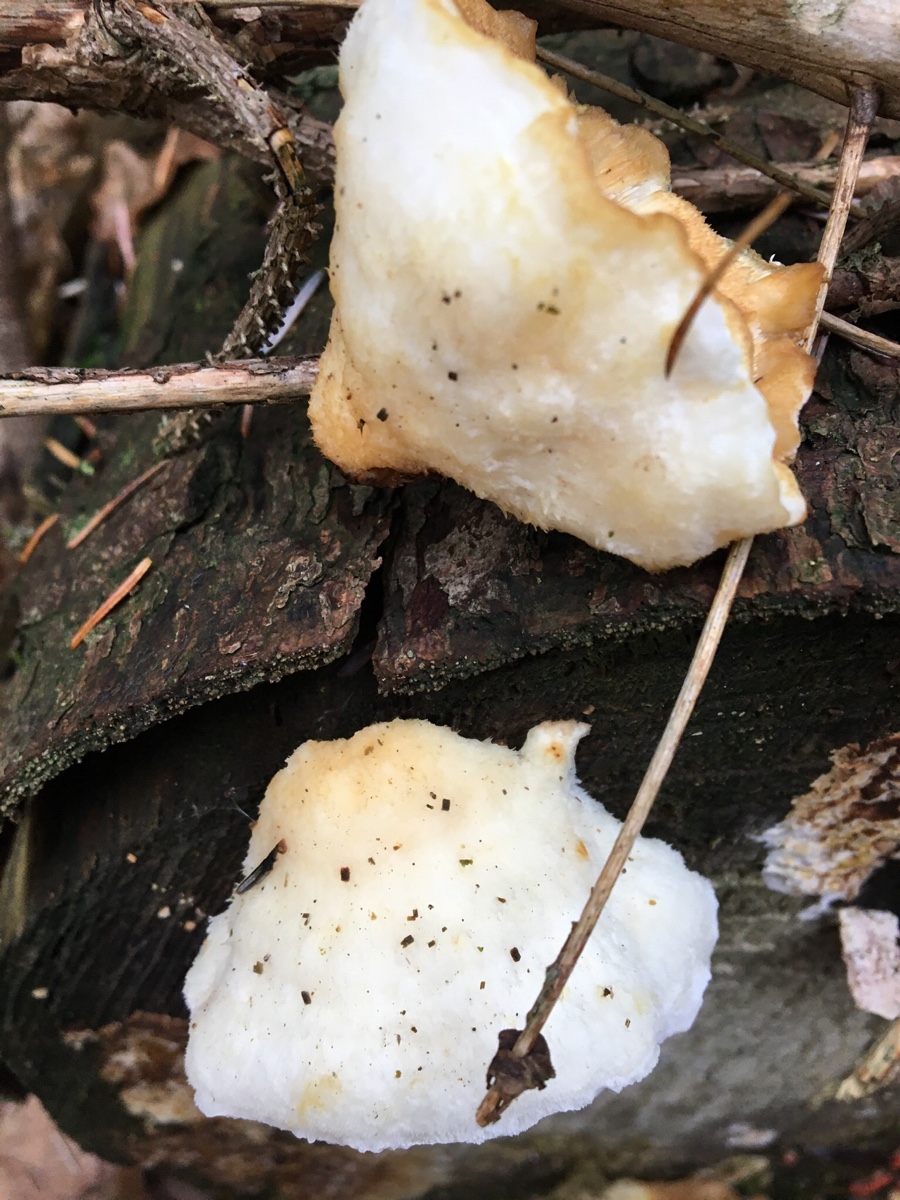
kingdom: Fungi
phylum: Basidiomycota
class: Agaricomycetes
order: Polyporales
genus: Fuscopostia
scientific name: Fuscopostia fragilis
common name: brunende kødporesvamp
